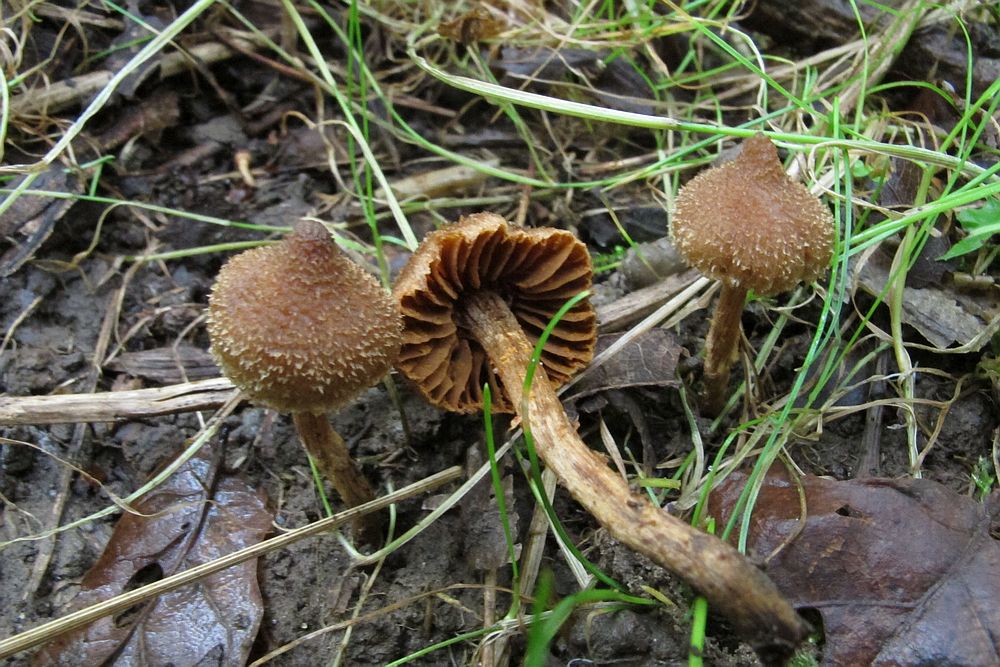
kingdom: Fungi
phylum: Basidiomycota
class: Agaricomycetes
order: Agaricales
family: Cortinariaceae
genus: Cortinarius
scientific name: Cortinarius quercoconicus
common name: agernskål-slørhat
